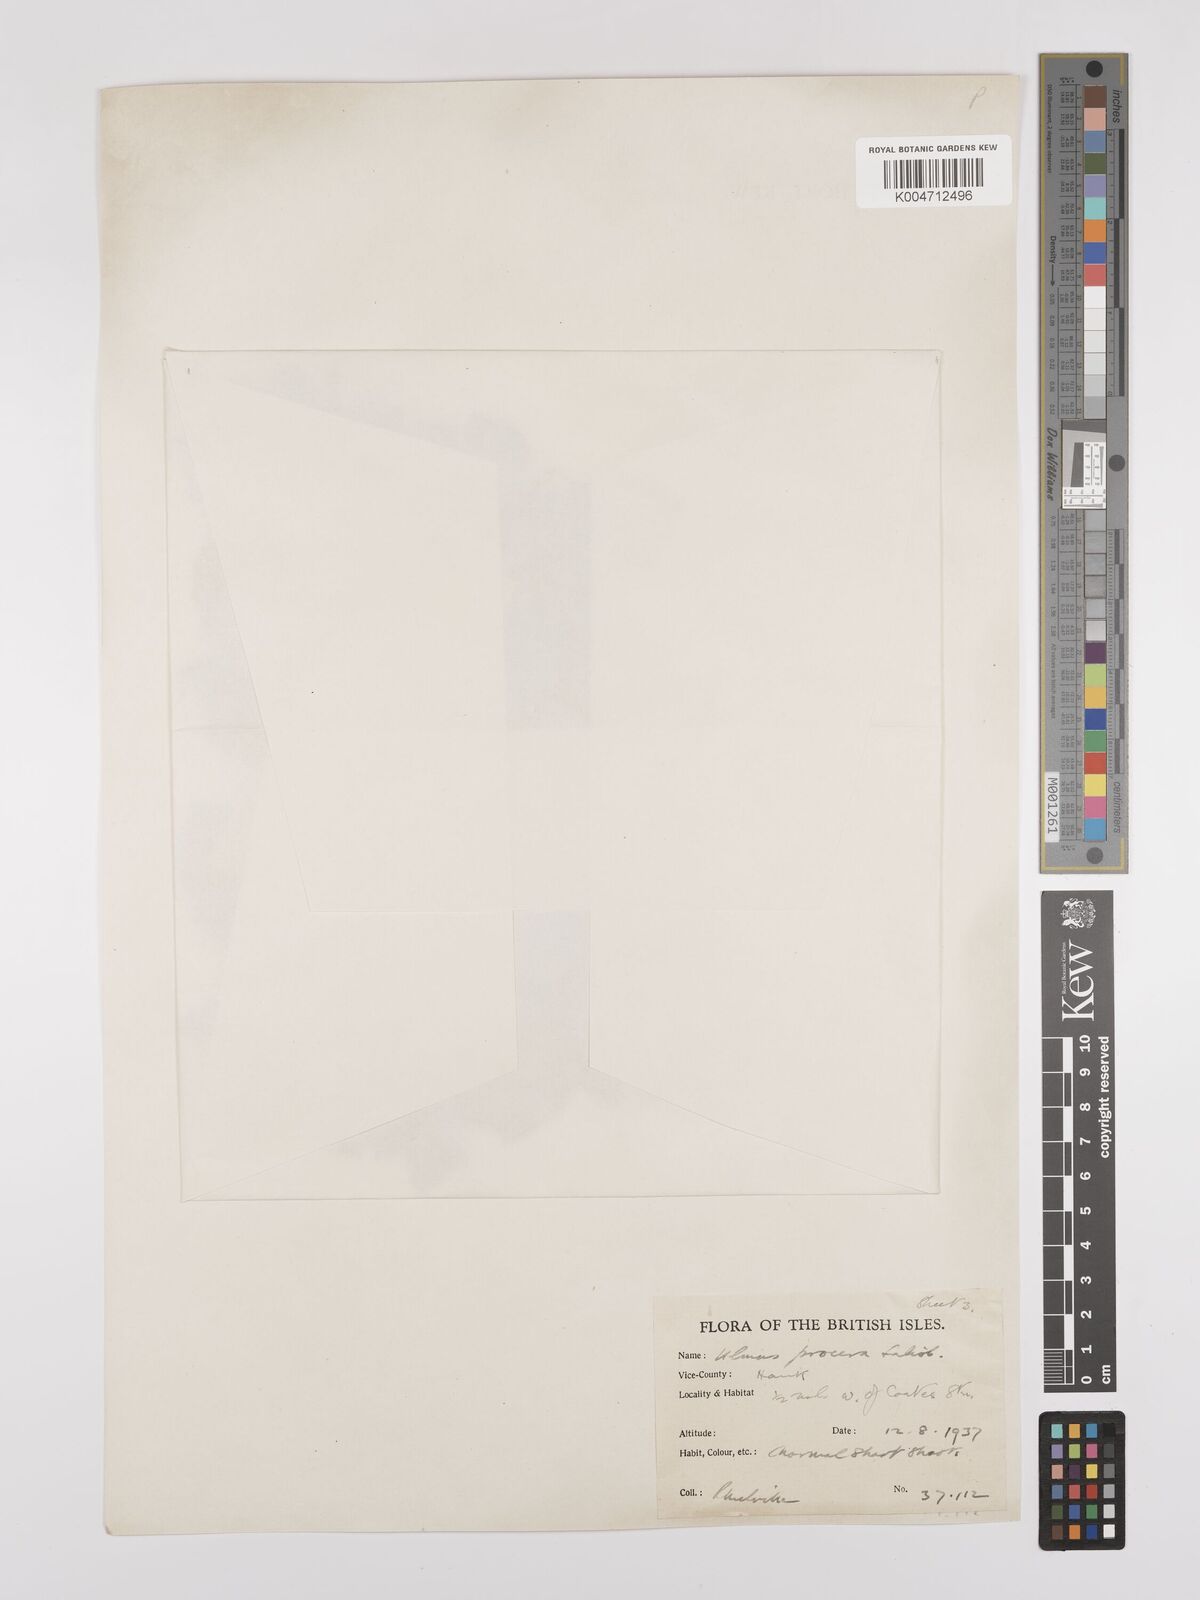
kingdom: Plantae
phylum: Tracheophyta
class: Magnoliopsida
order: Rosales
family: Ulmaceae
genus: Ulmus
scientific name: Ulmus minor
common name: Small-leaved elm
